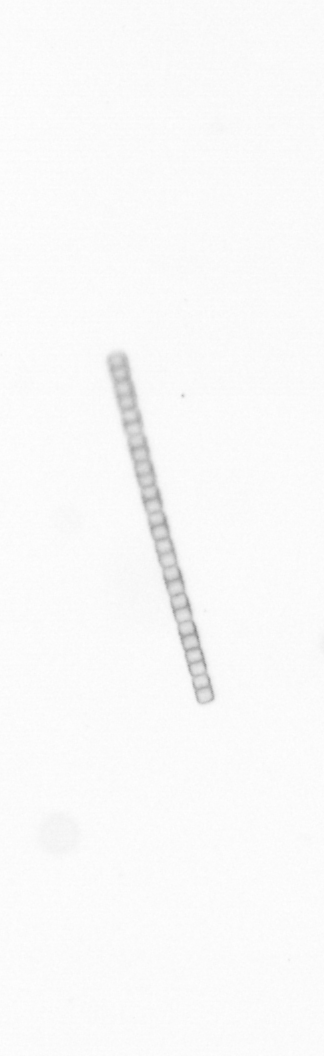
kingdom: Chromista
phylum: Ochrophyta
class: Bacillariophyceae
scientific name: Bacillariophyceae
